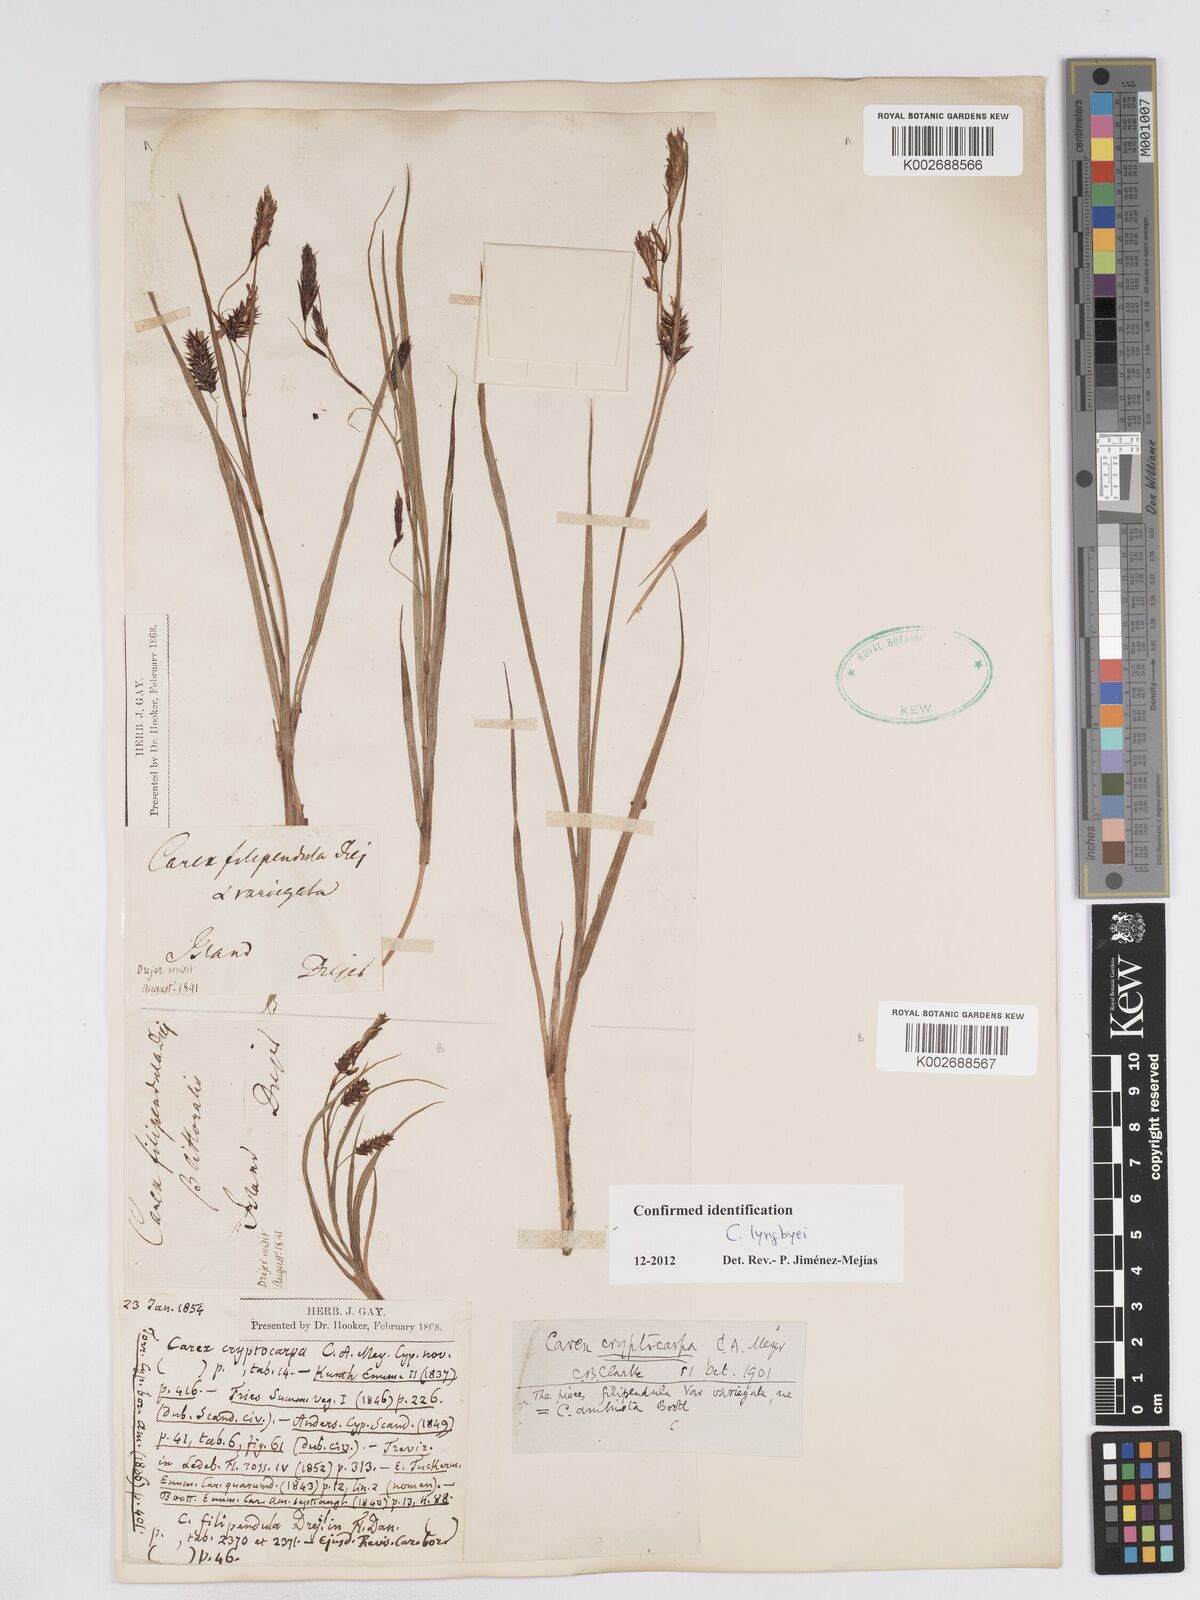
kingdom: Plantae
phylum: Tracheophyta
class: Liliopsida
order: Poales
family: Cyperaceae
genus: Carex
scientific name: Carex lyngbyei
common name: Lyngbye's sedge
